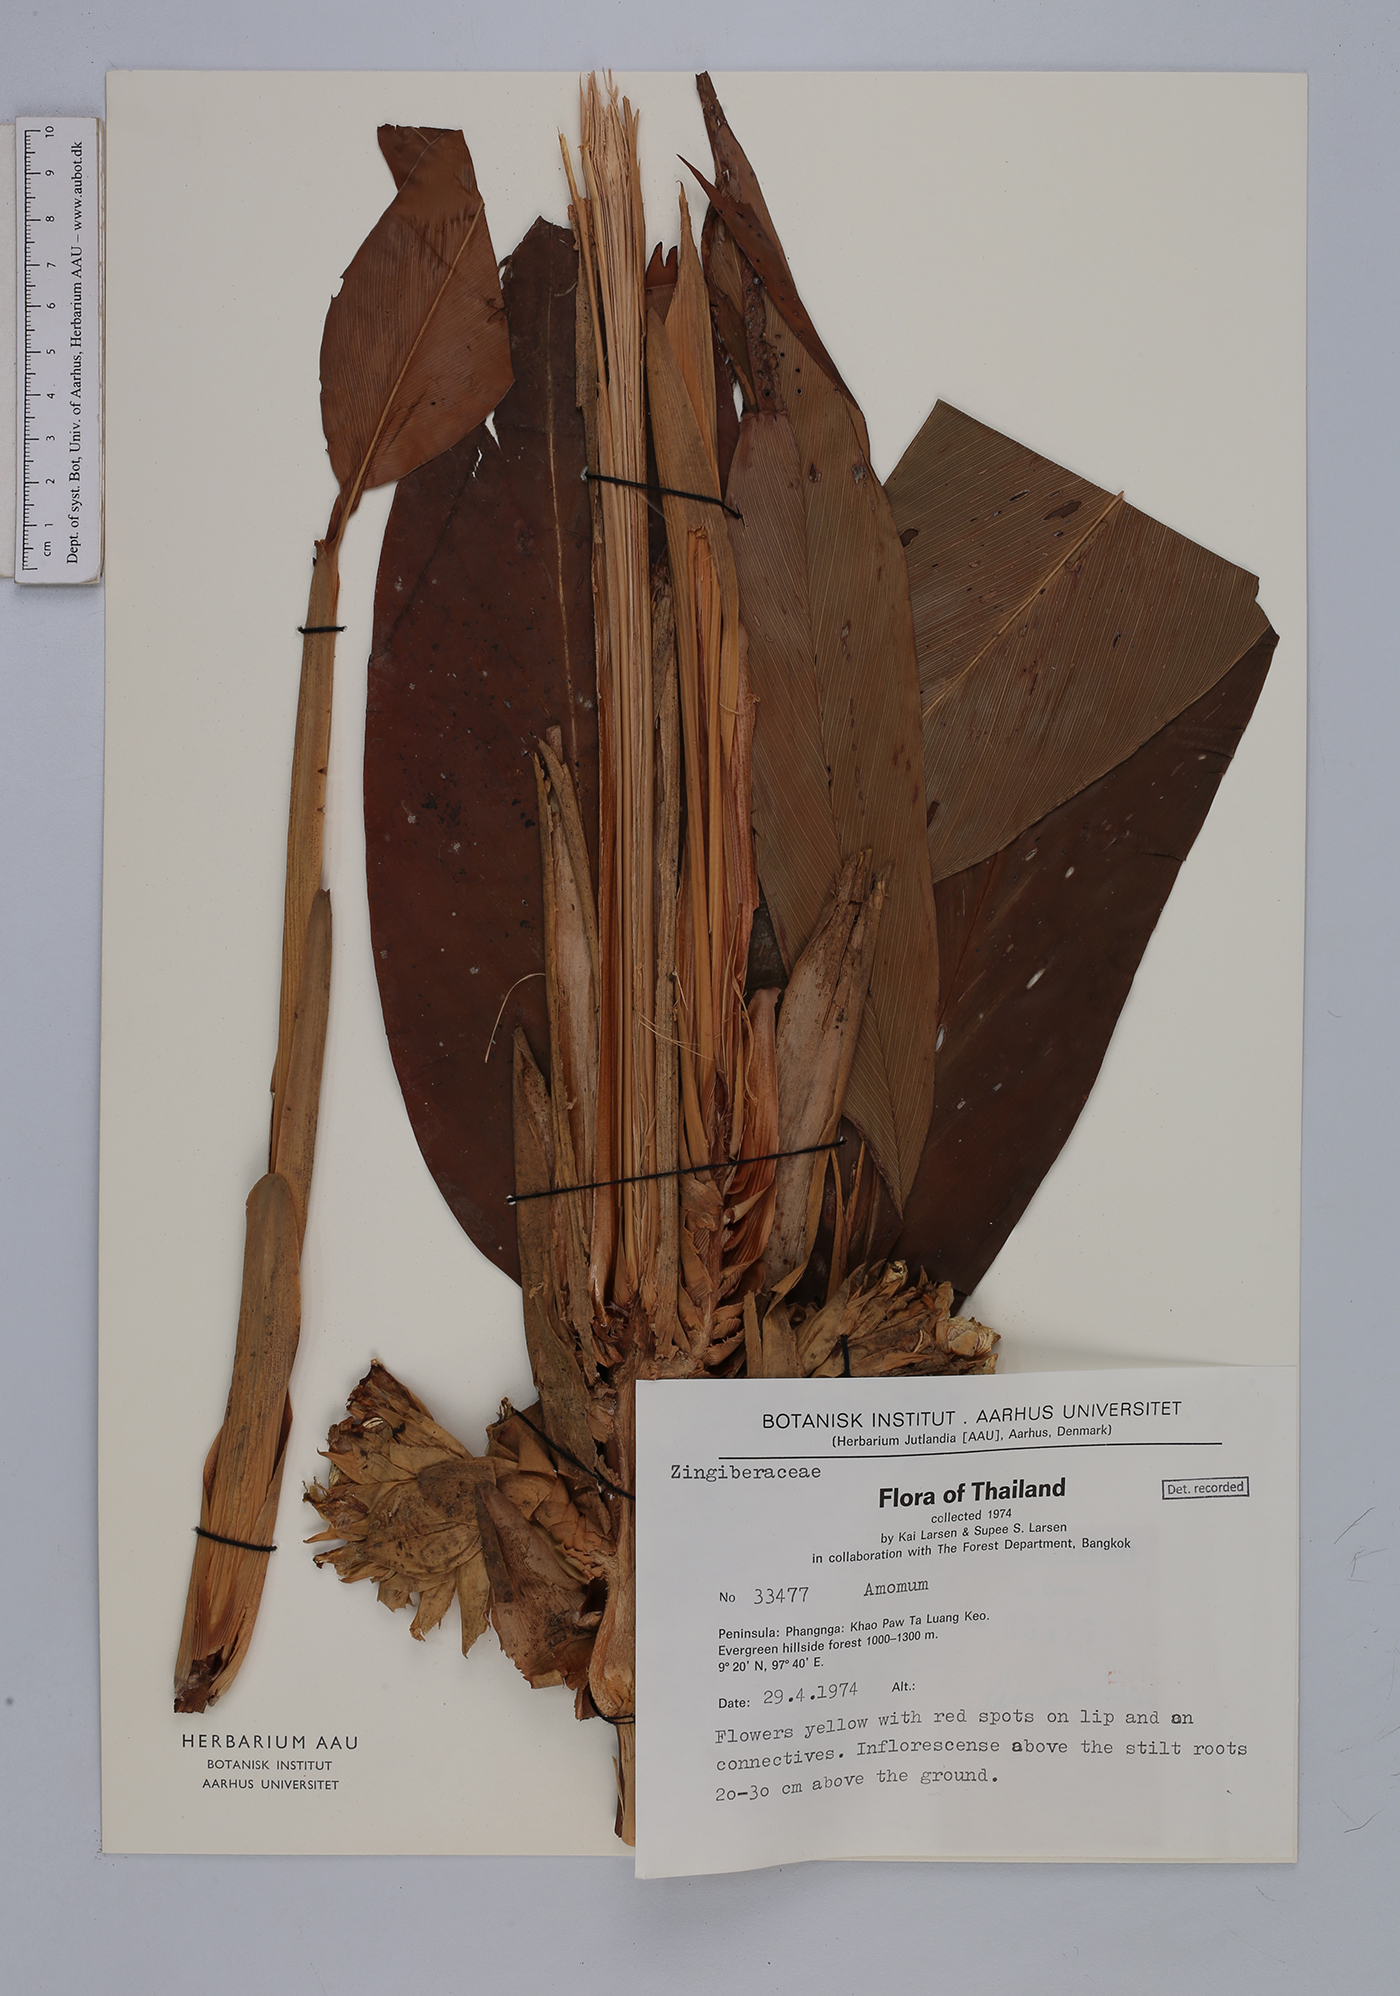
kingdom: Plantae
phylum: Tracheophyta
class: Liliopsida
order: Zingiberales
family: Zingiberaceae
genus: Amomum
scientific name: Amomum
